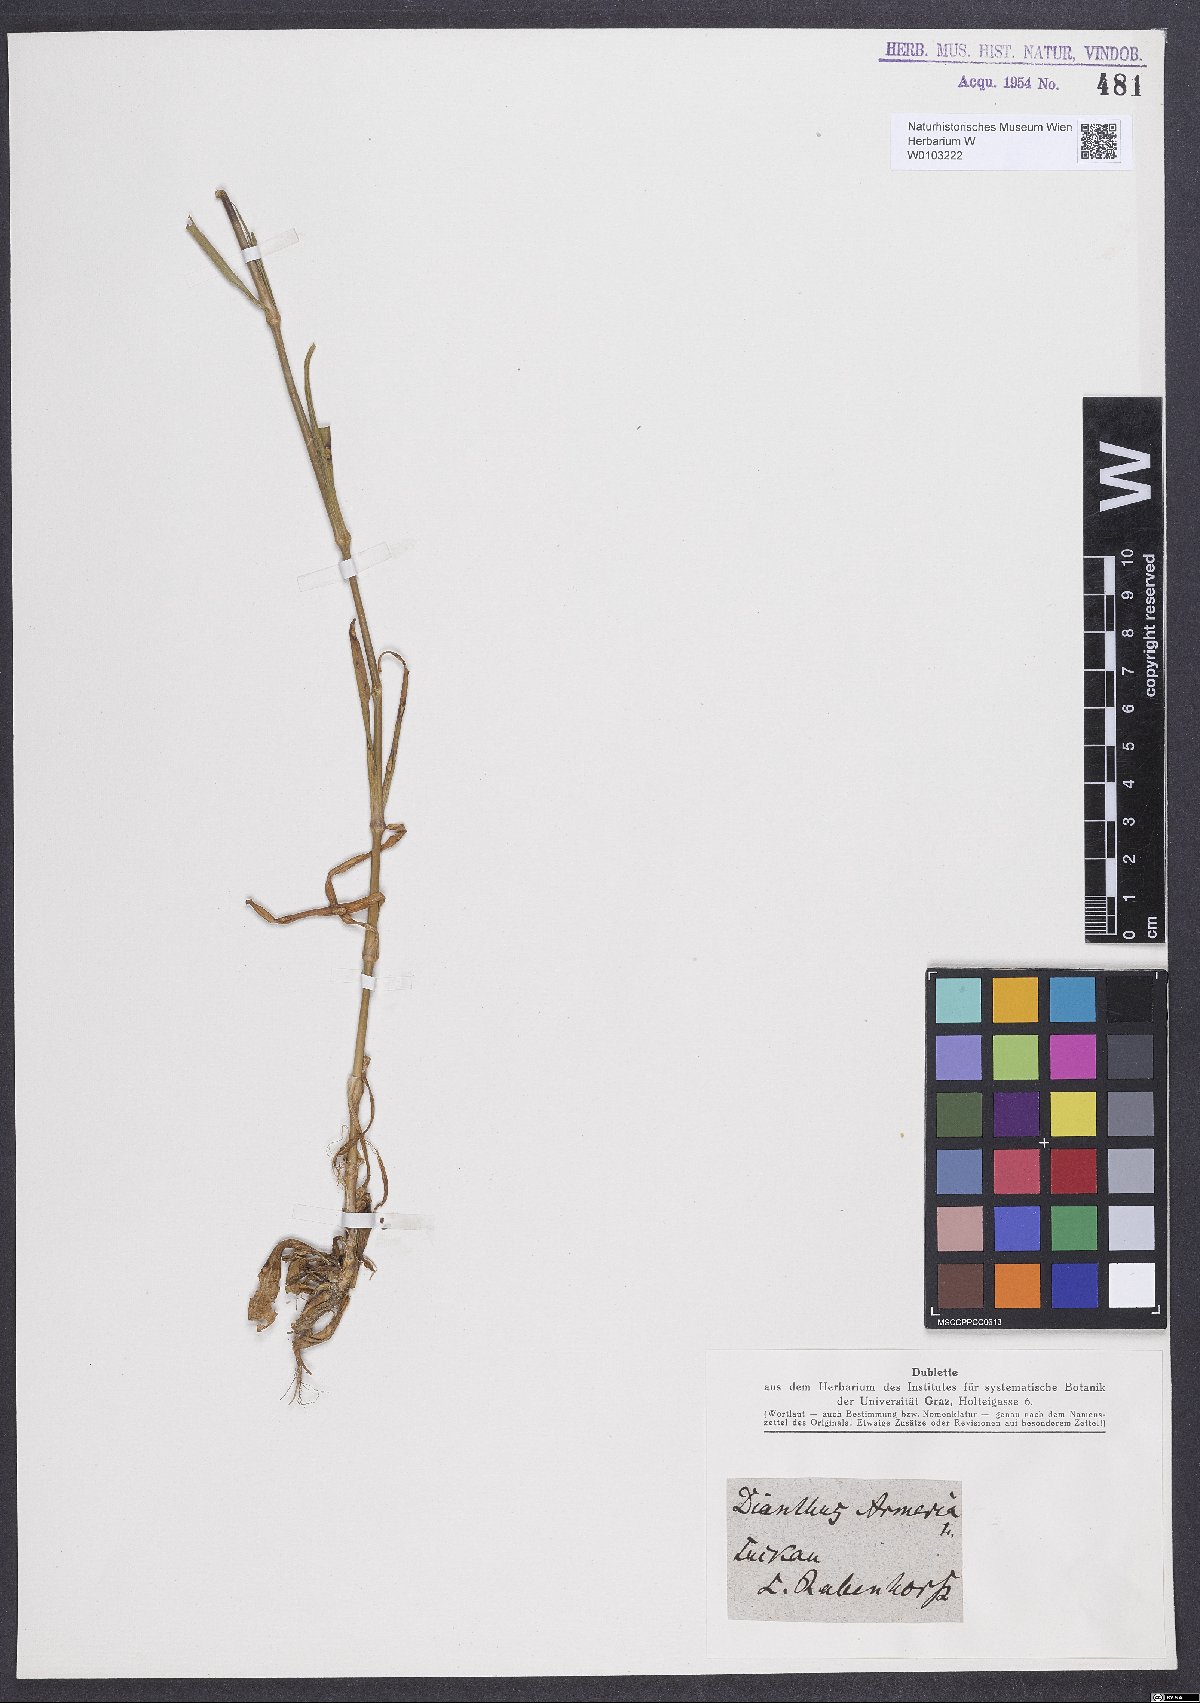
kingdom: Plantae
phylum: Tracheophyta
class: Magnoliopsida
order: Caryophyllales
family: Caryophyllaceae
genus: Dianthus
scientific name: Dianthus armeria
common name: Deptford pink
